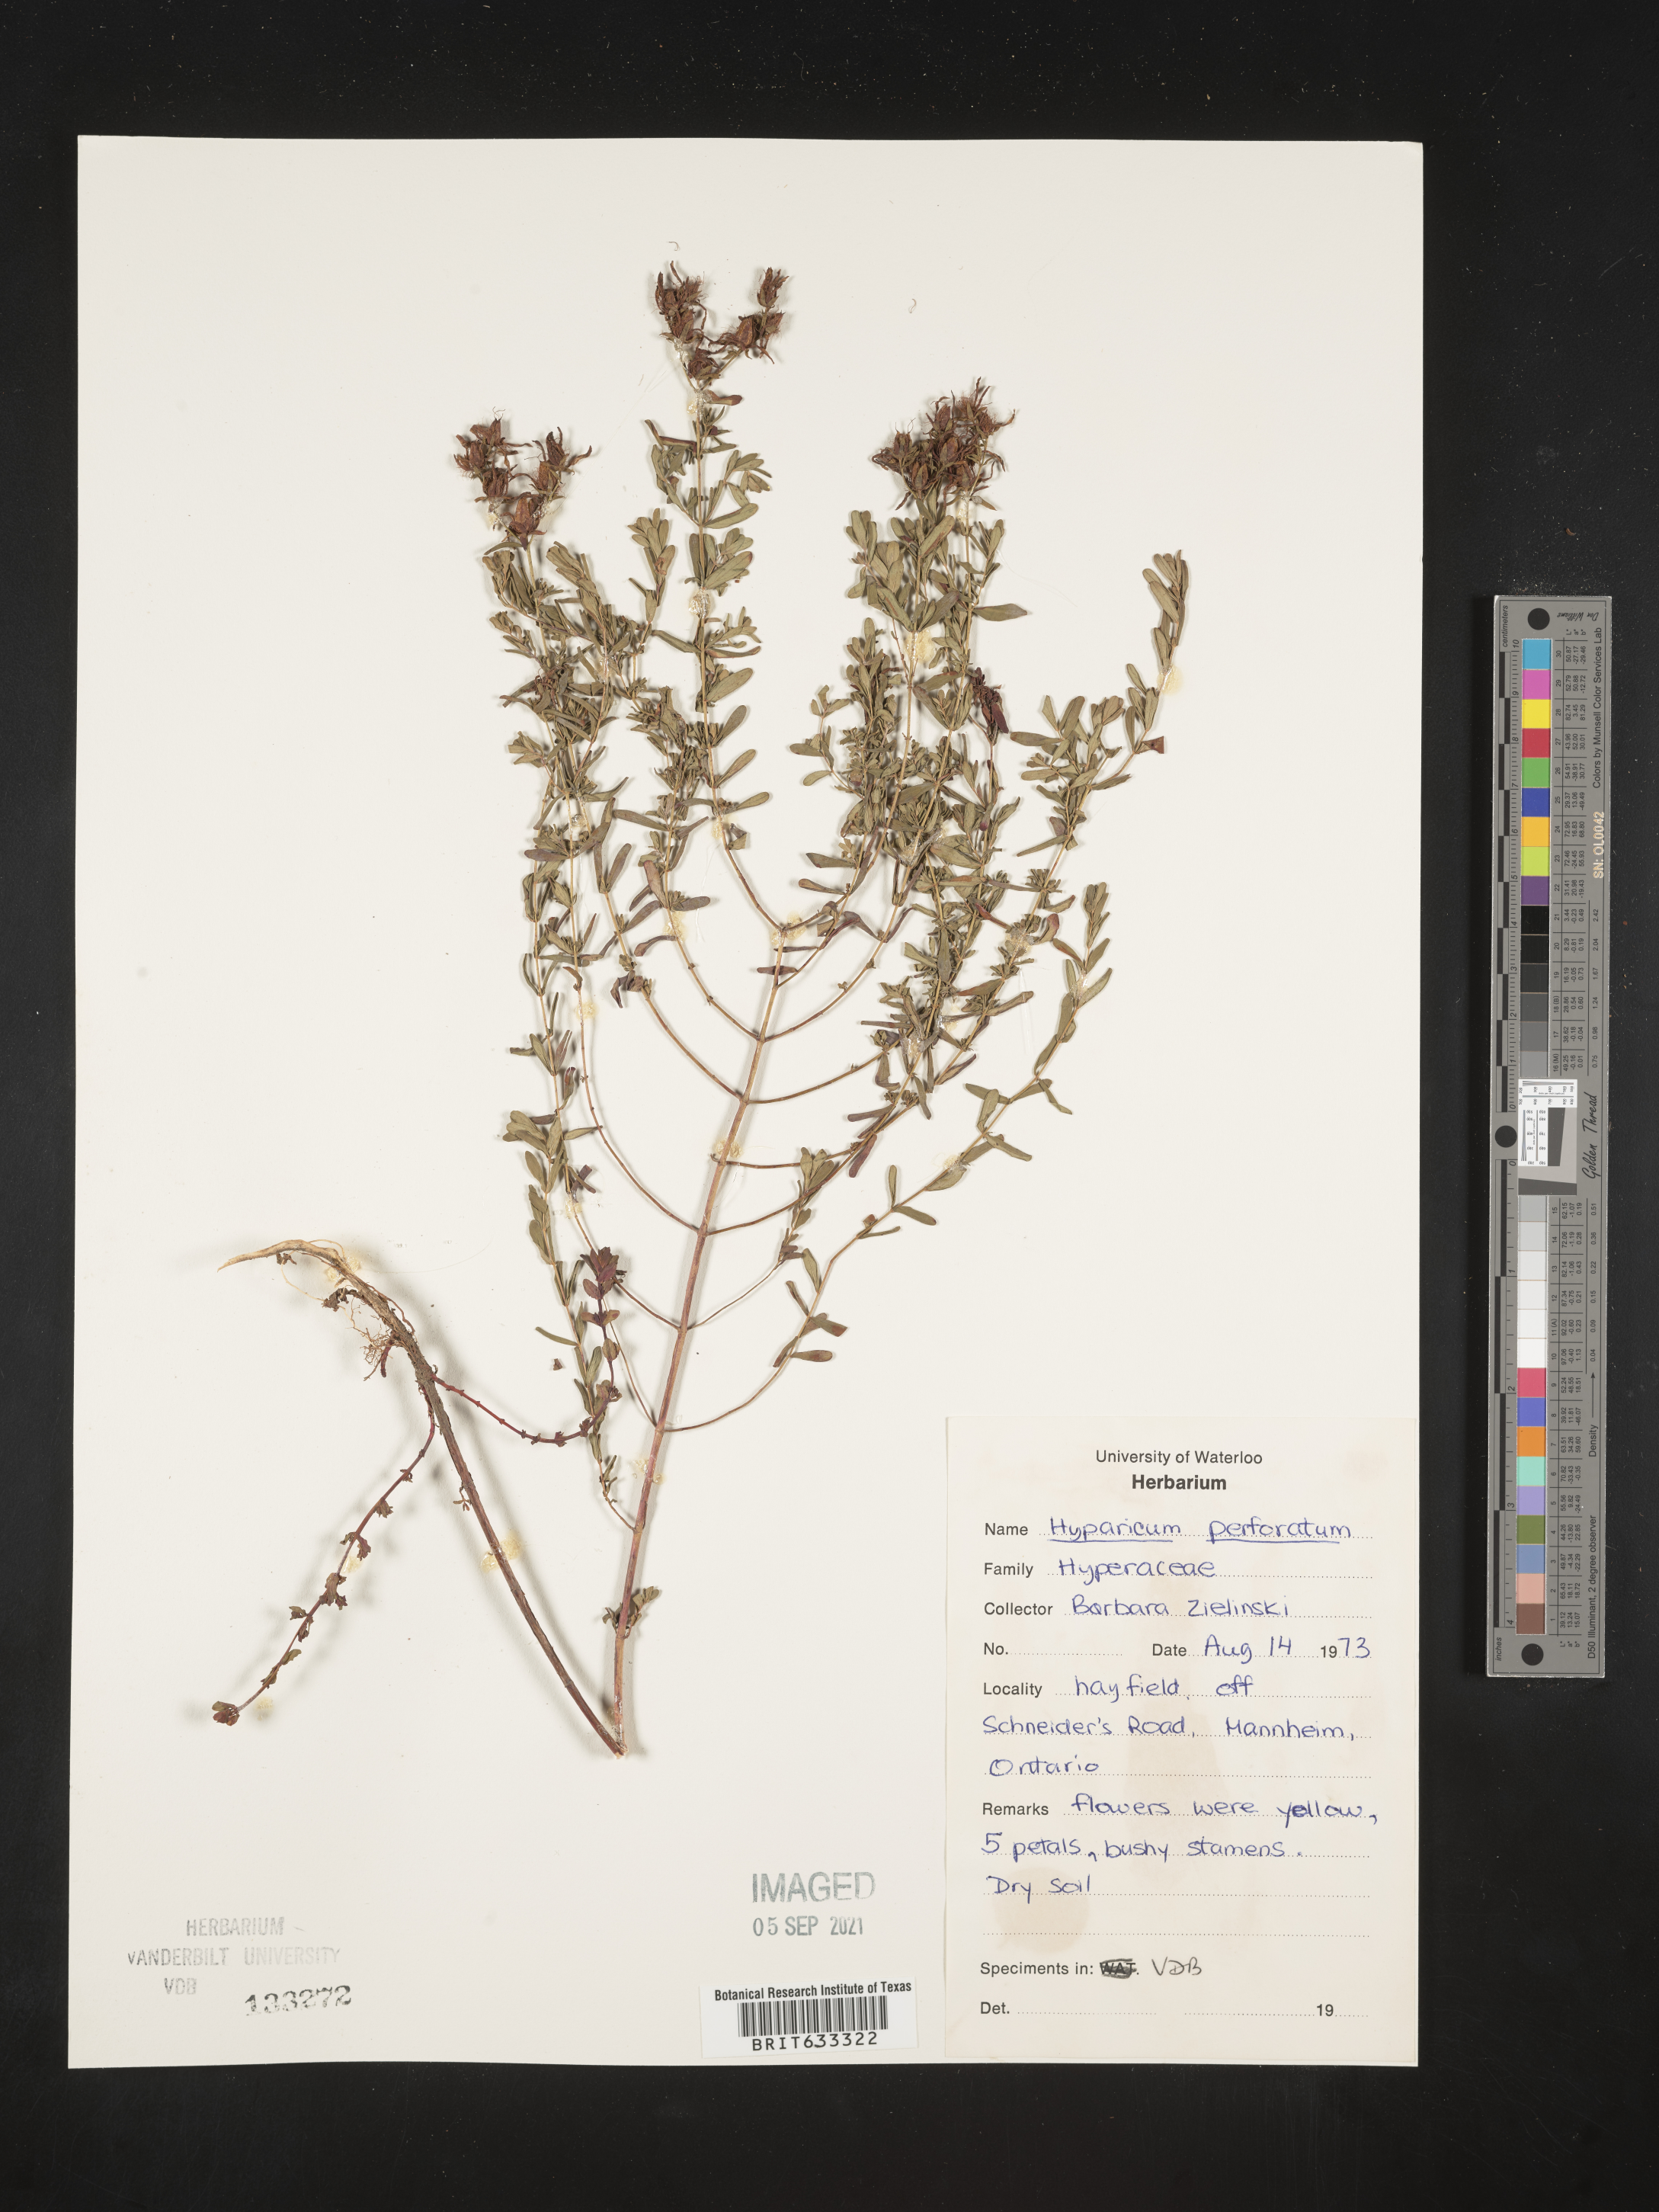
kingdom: Plantae
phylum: Tracheophyta
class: Magnoliopsida
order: Malpighiales
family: Hypericaceae
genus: Hypericum
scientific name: Hypericum
